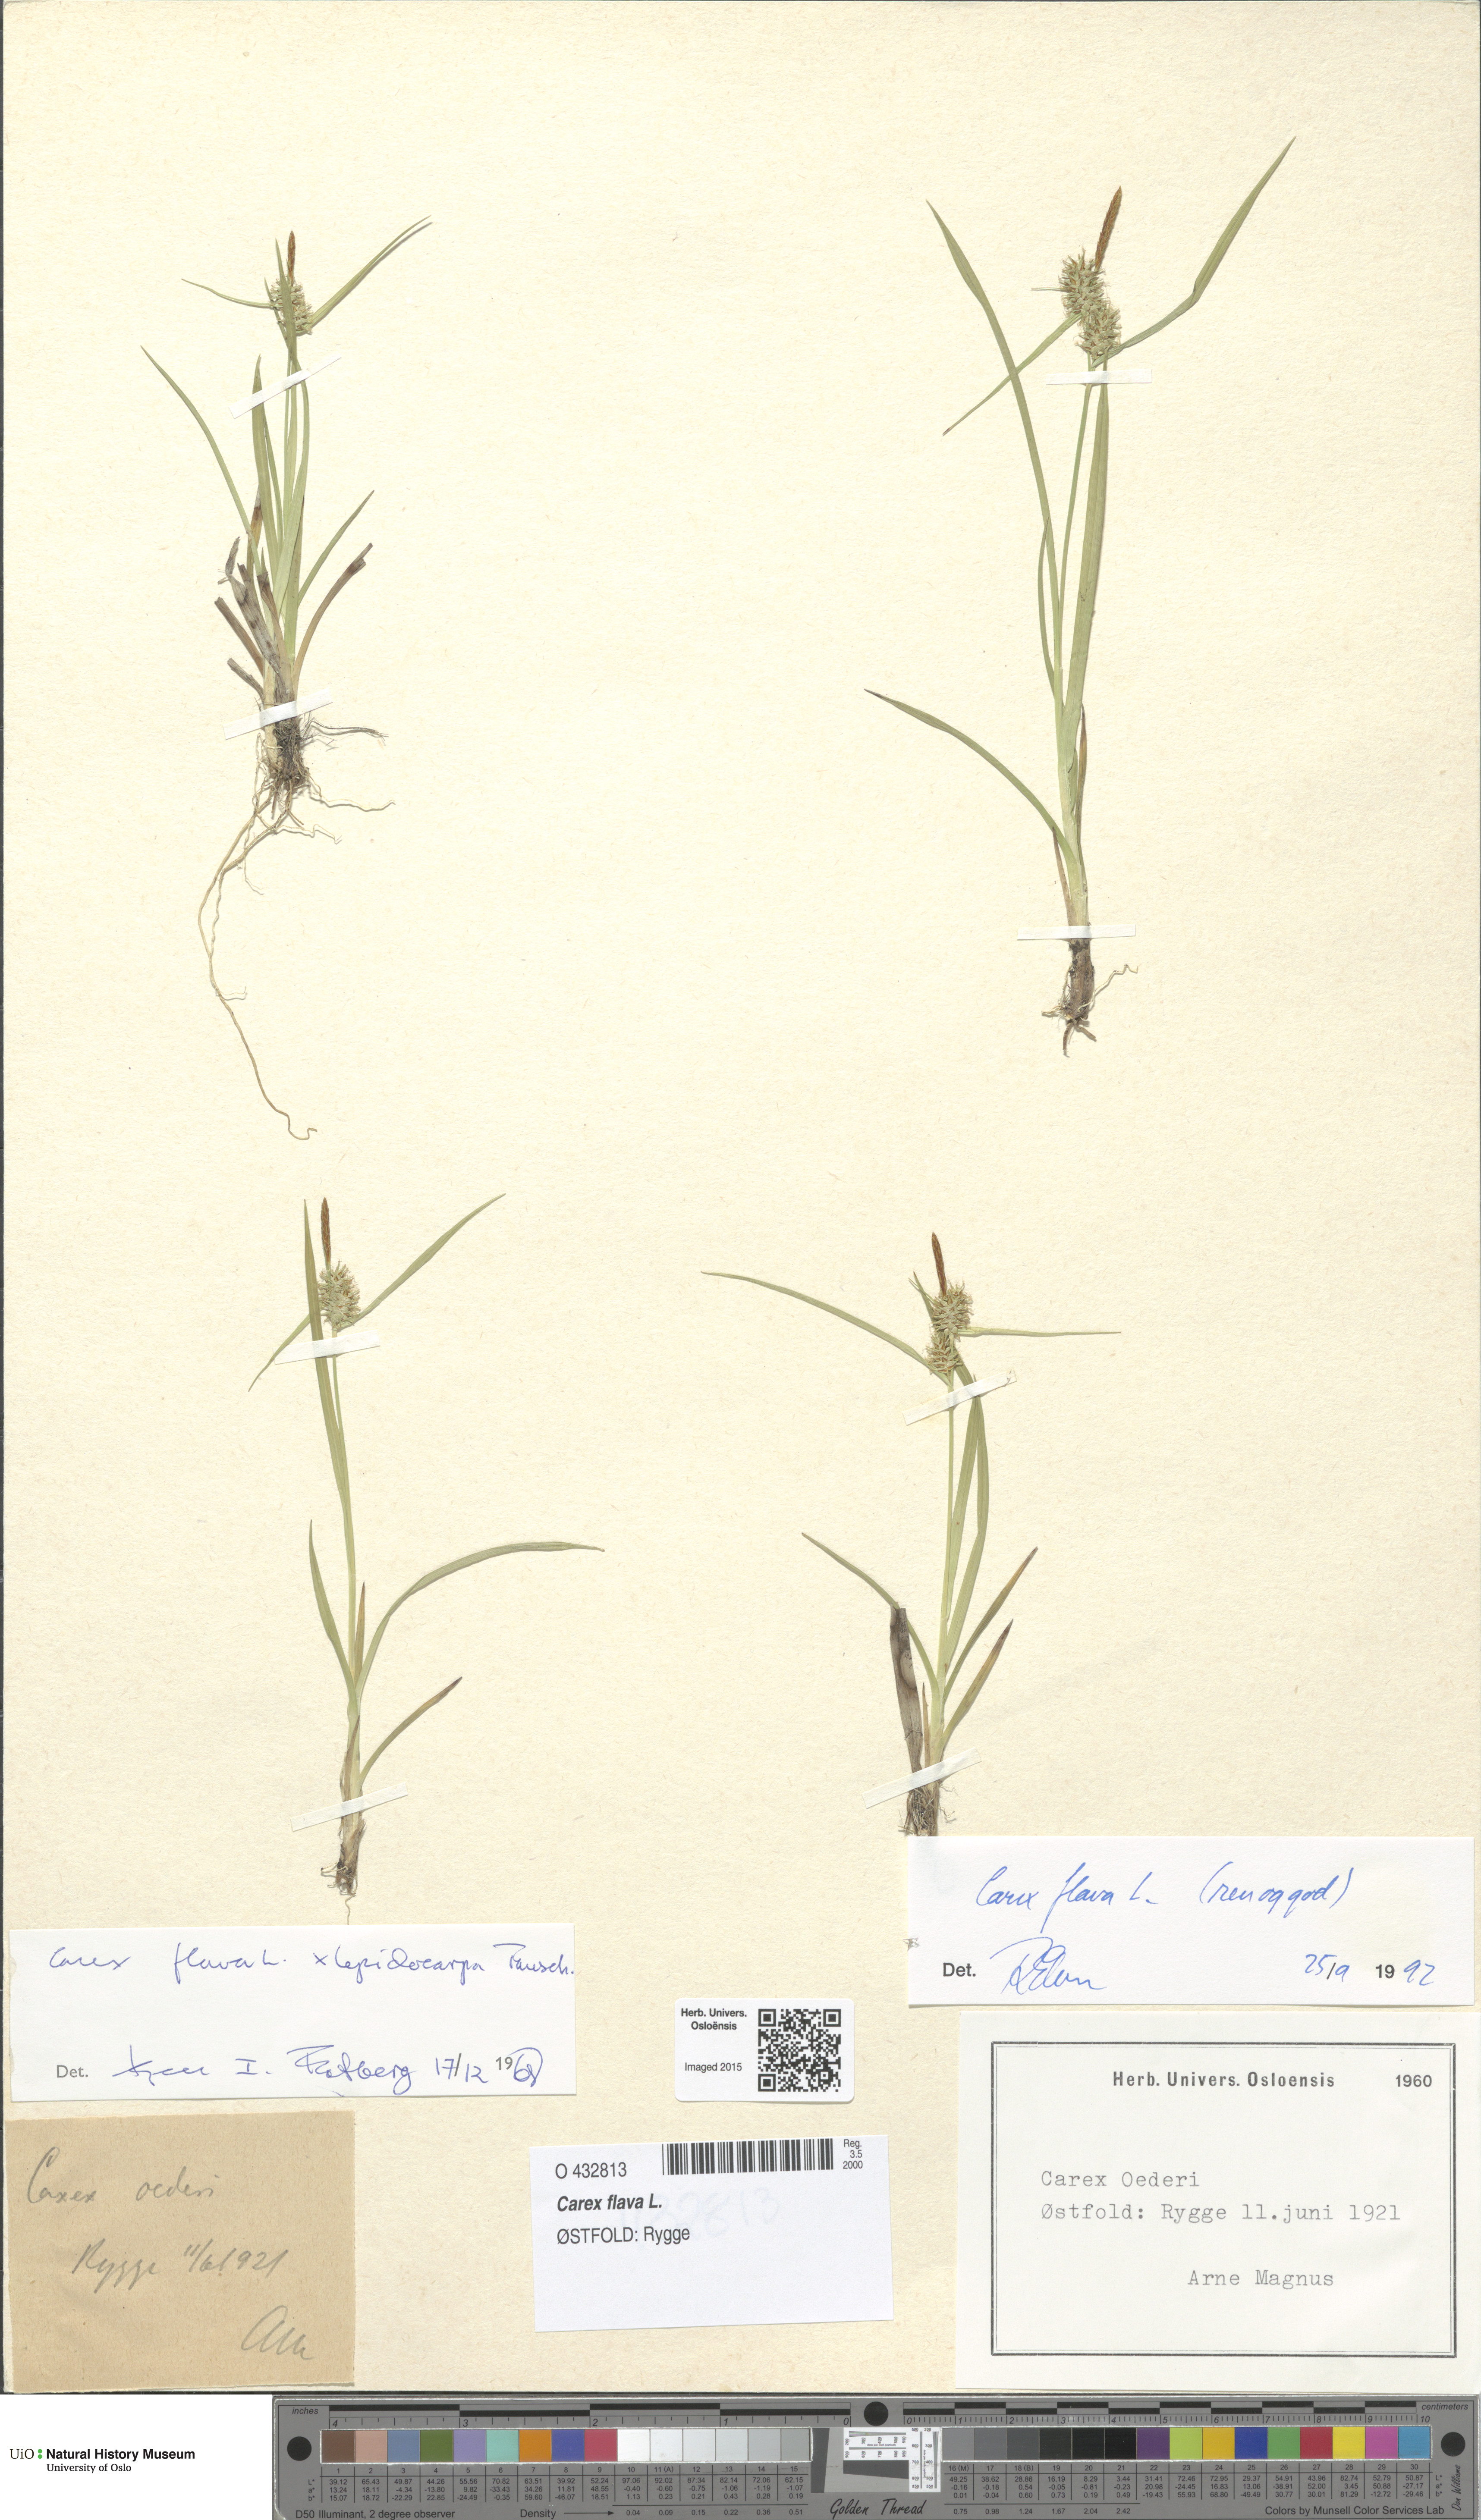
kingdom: Plantae
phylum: Tracheophyta
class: Liliopsida
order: Poales
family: Cyperaceae
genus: Carex
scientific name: Carex flava
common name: Large yellow-sedge
